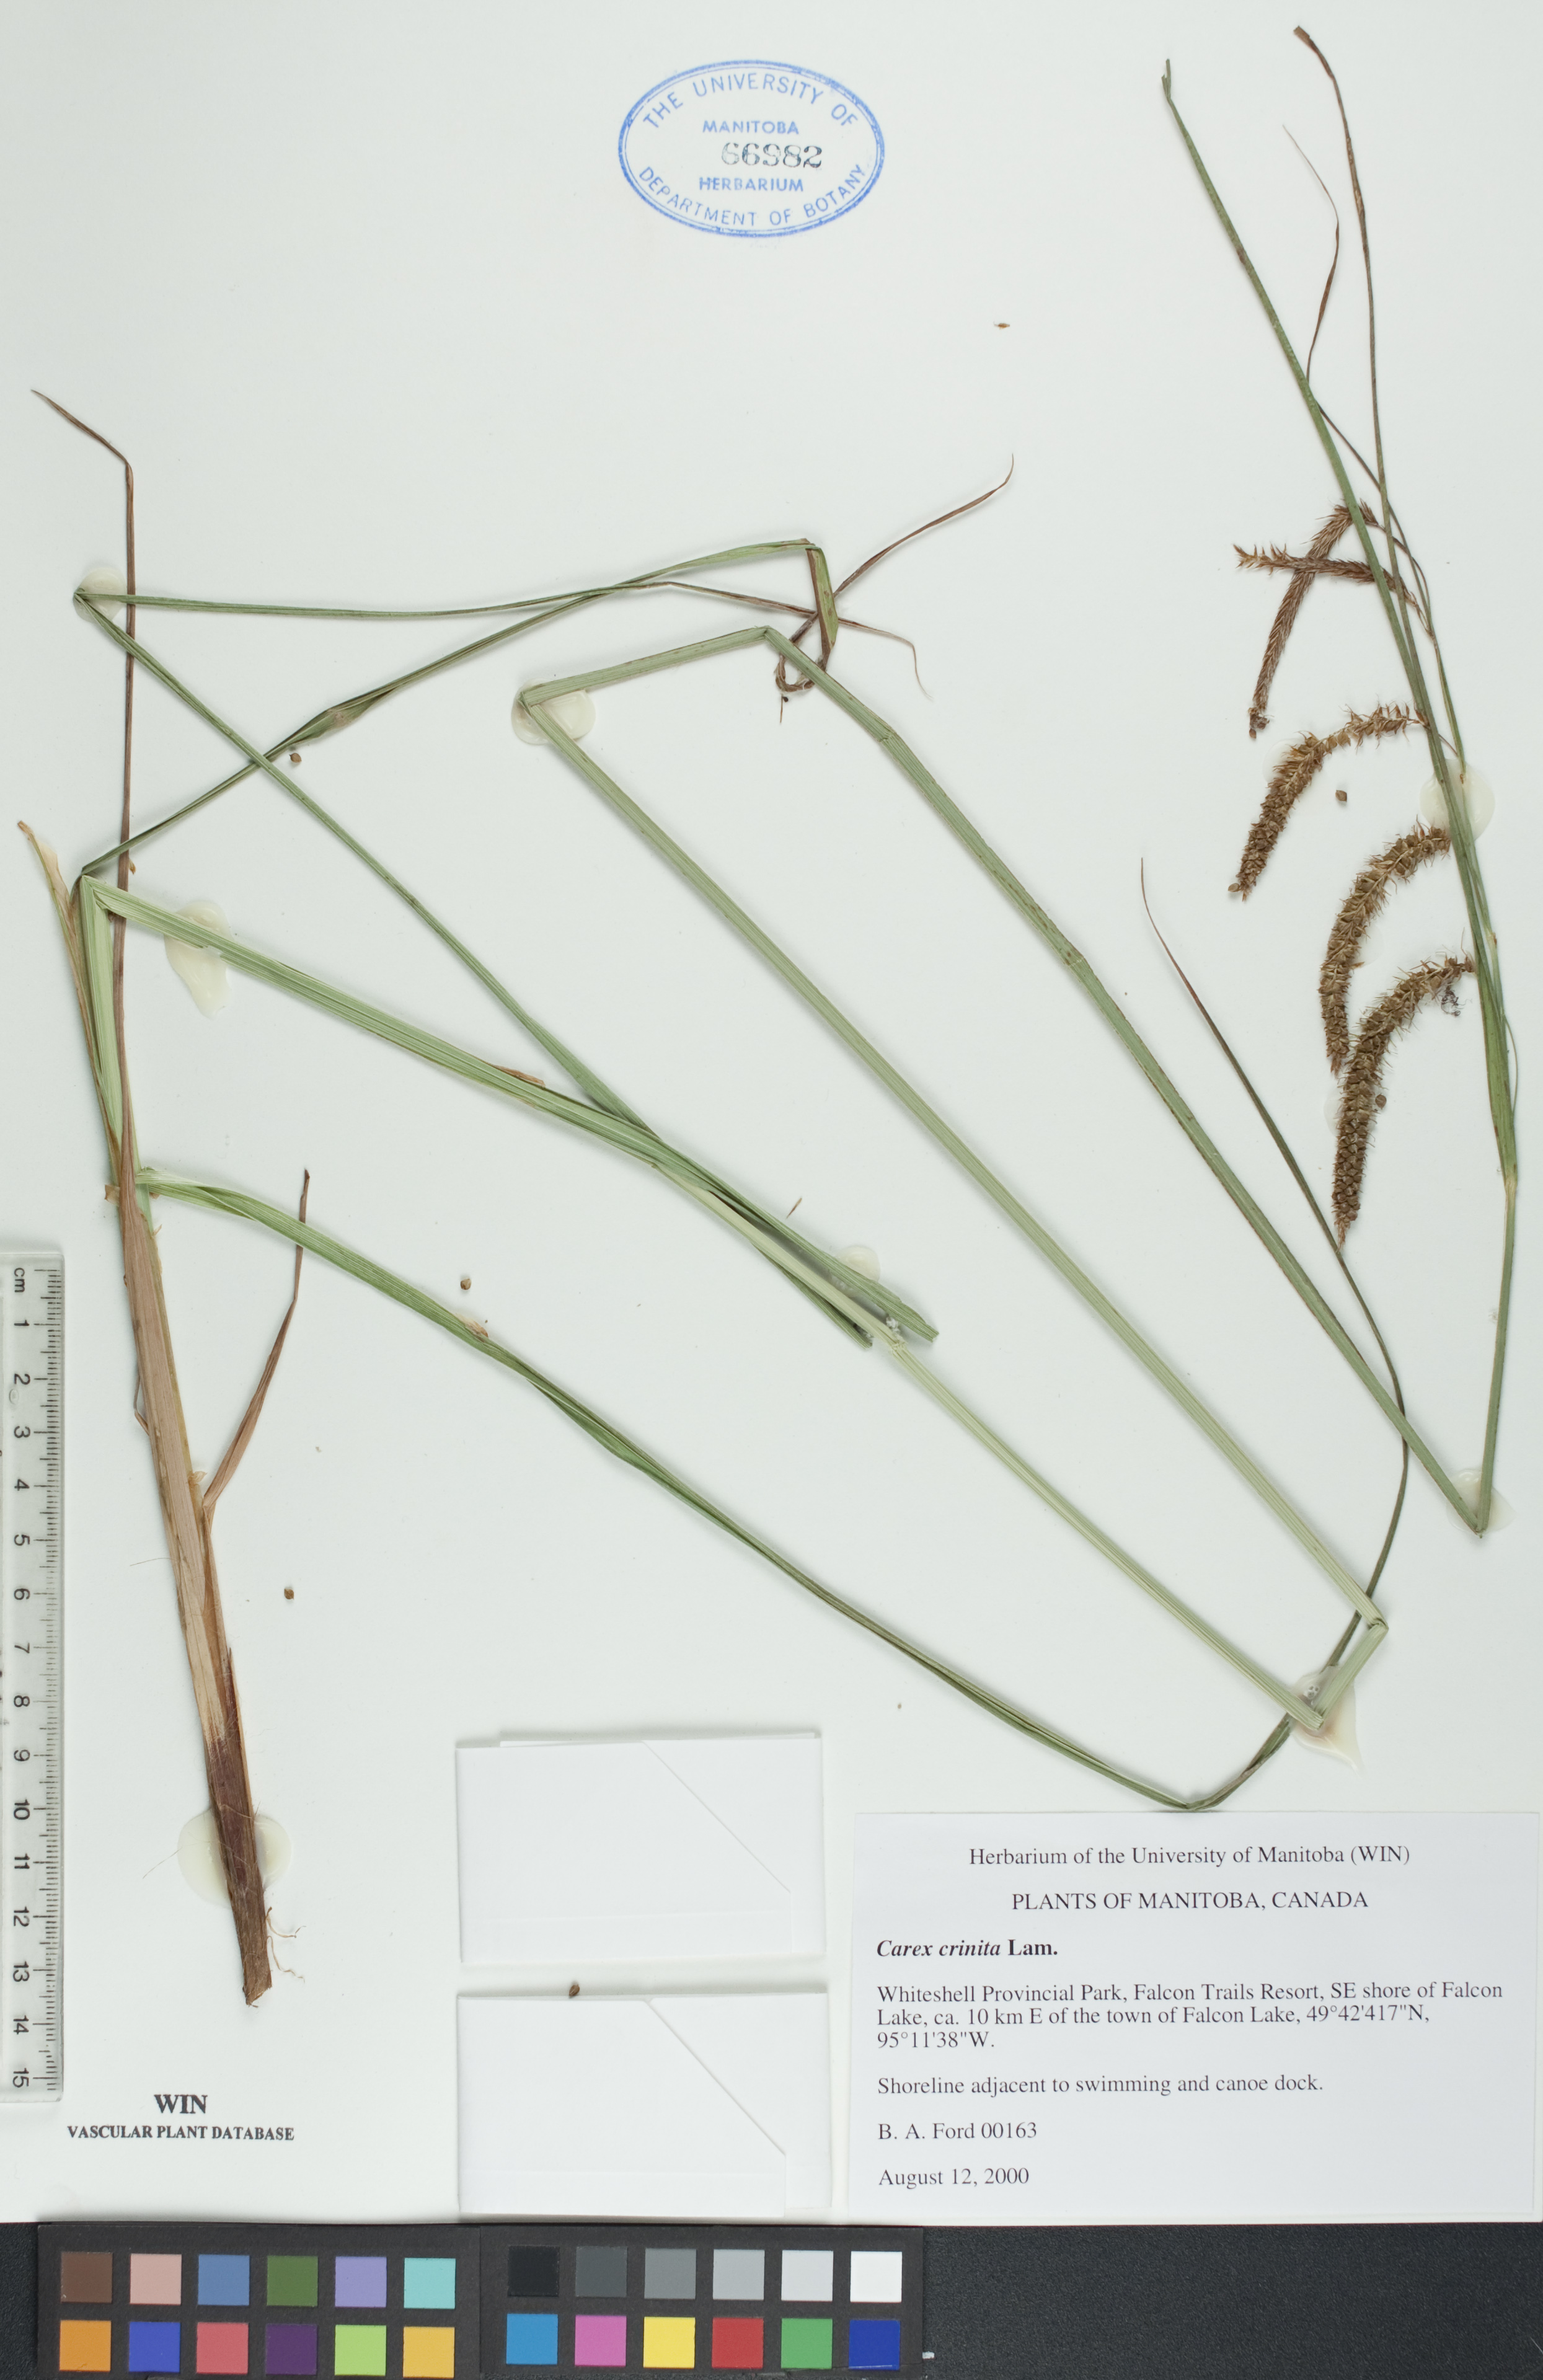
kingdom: Plantae
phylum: Tracheophyta
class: Liliopsida
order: Poales
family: Cyperaceae
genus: Carex
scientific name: Carex crinita
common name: Fringed sedge
